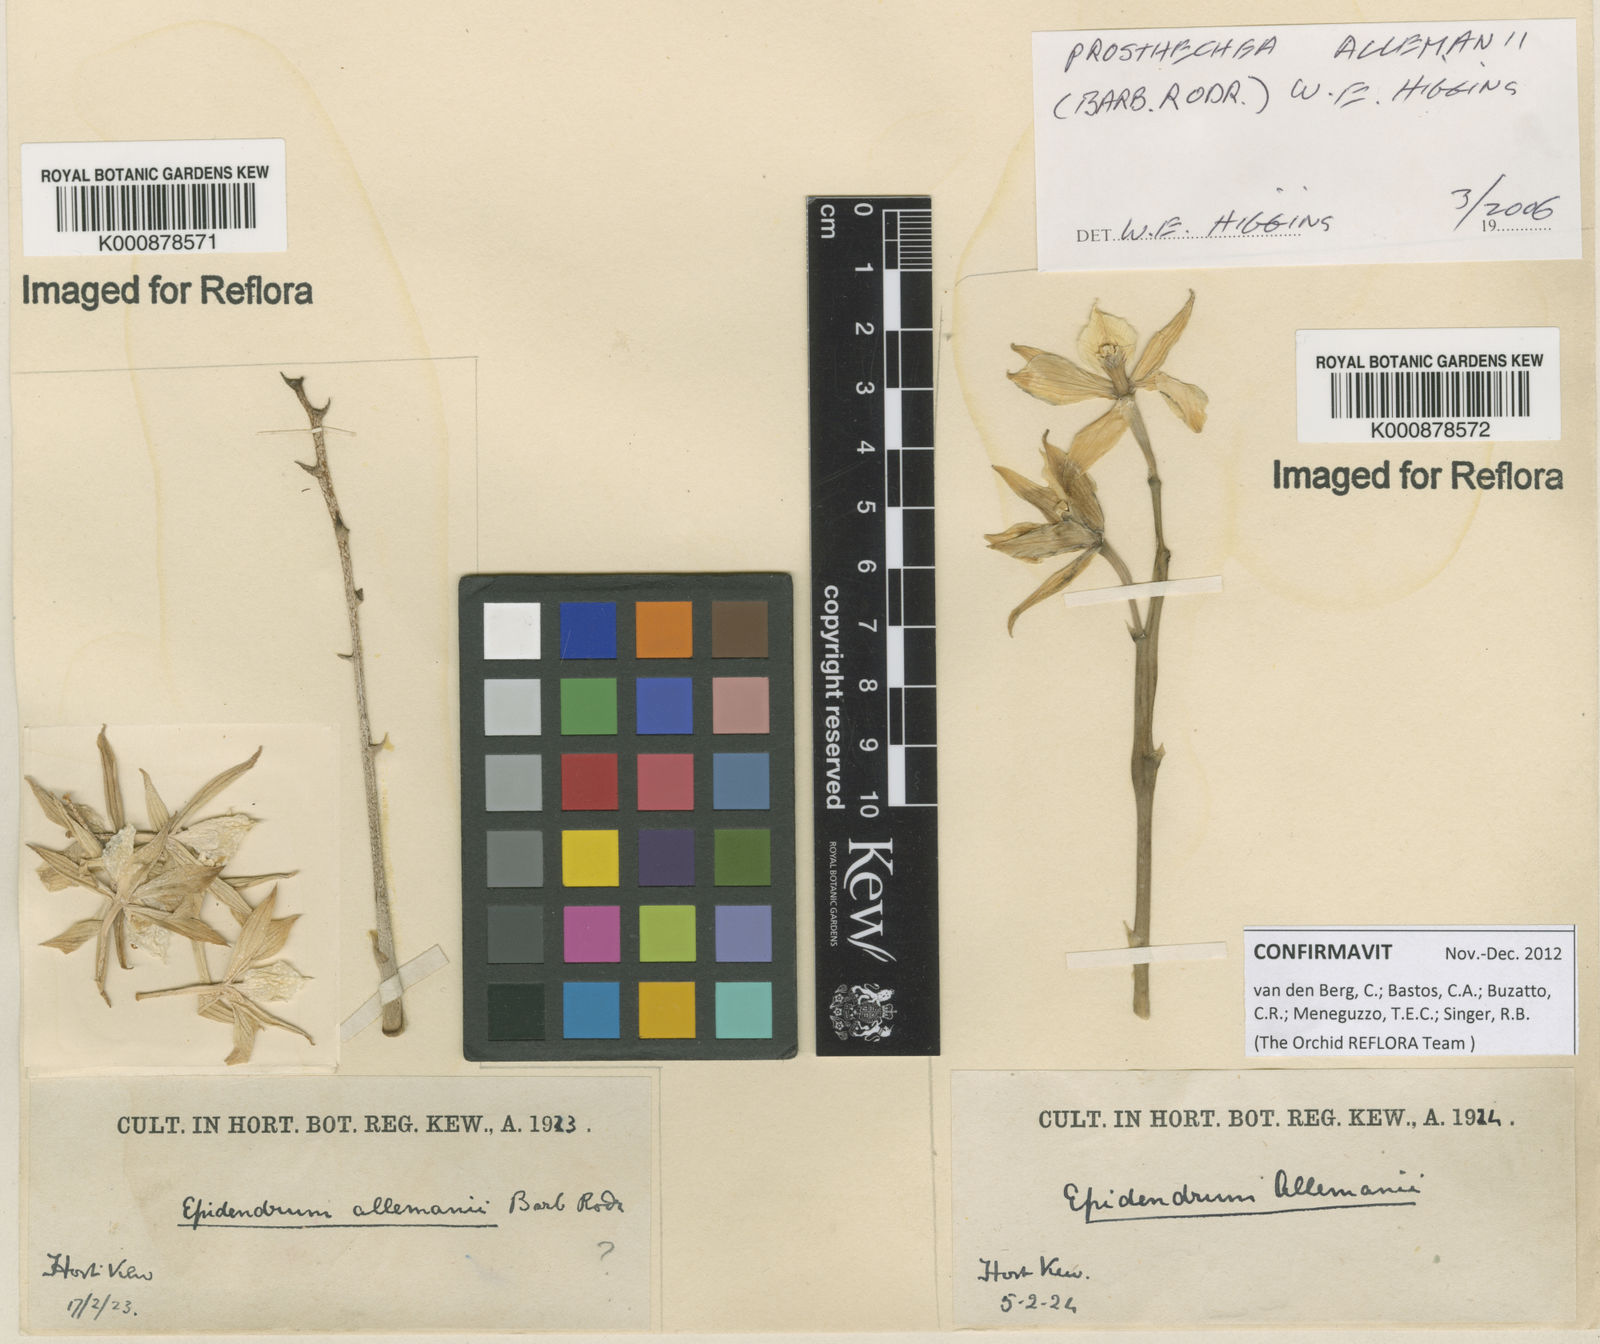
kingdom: Plantae
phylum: Tracheophyta
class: Liliopsida
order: Asparagales
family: Orchidaceae
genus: Prosthechea
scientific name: Prosthechea allemanii
